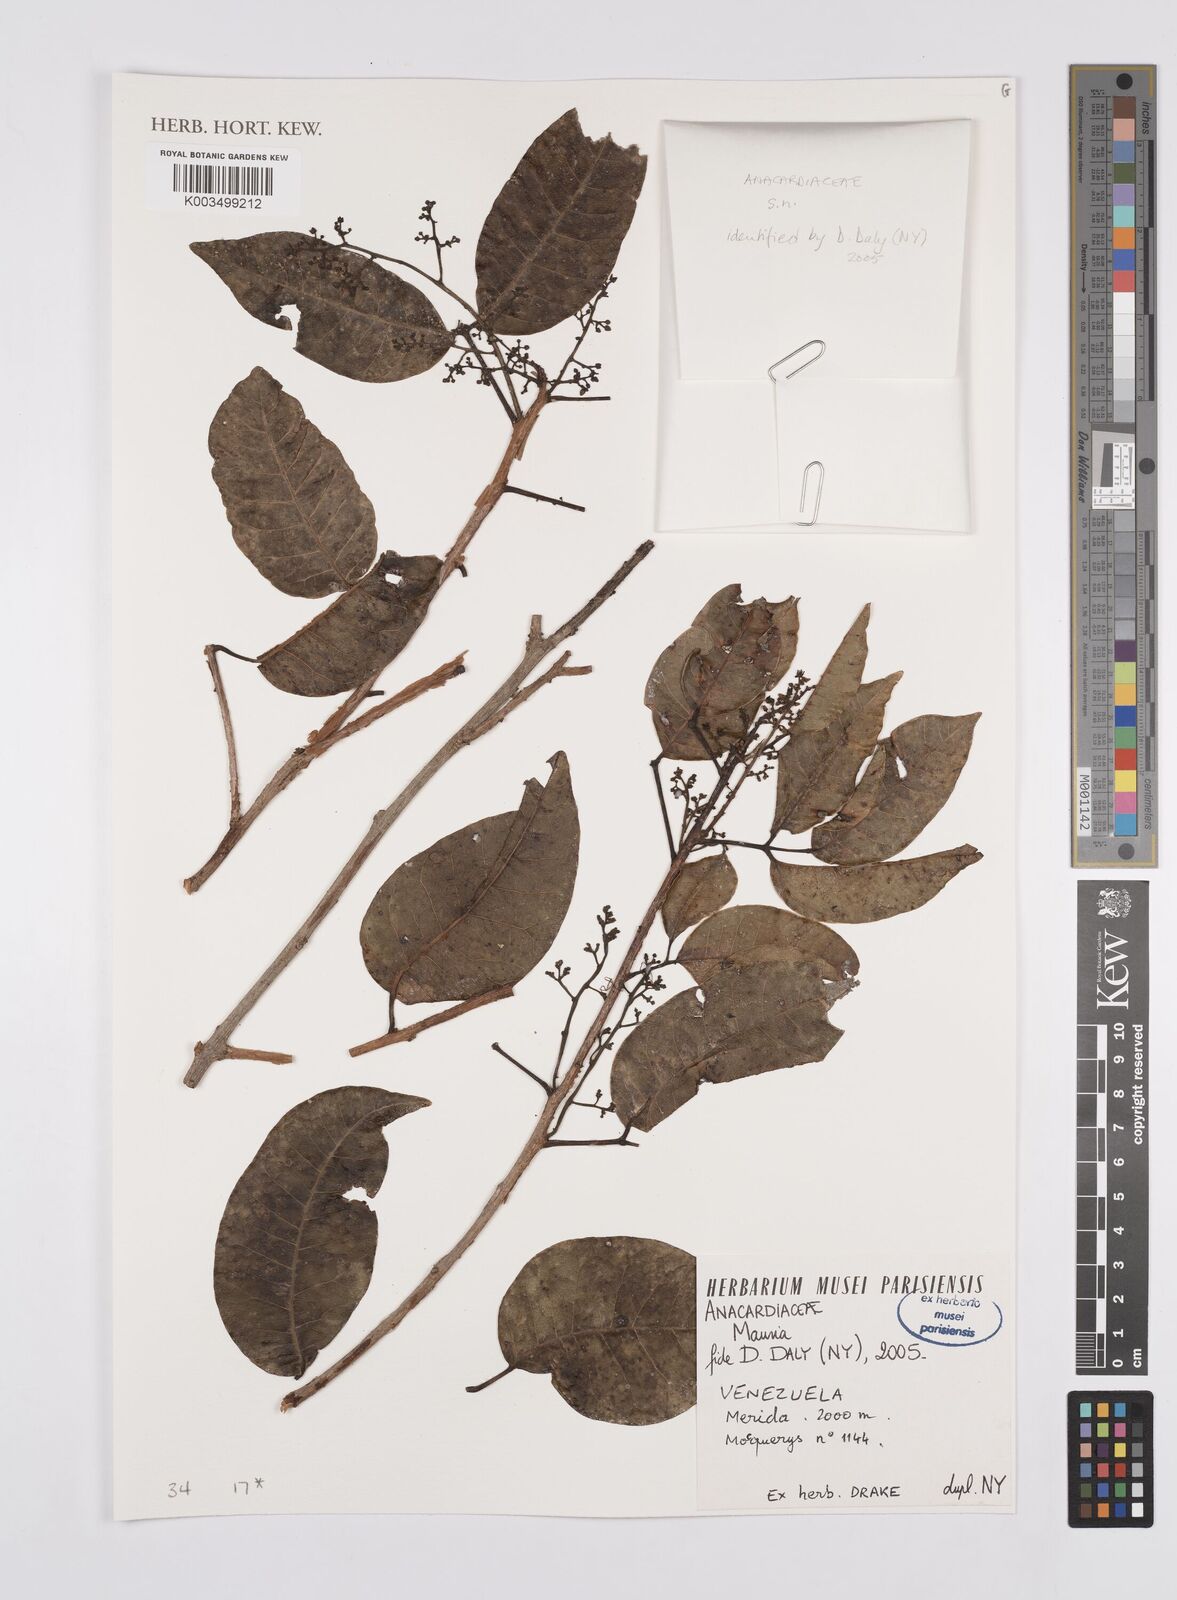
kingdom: Plantae
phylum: Tracheophyta
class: Magnoliopsida
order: Sapindales
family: Anacardiaceae
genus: Mauria
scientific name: Mauria
